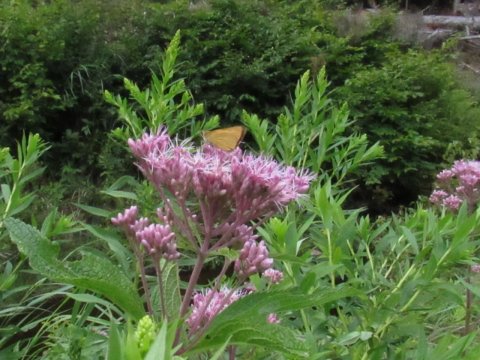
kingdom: Animalia
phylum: Arthropoda
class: Insecta
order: Lepidoptera
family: Hesperiidae
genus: Atrytone
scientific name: Atrytone delaware
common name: Delaware Skipper
